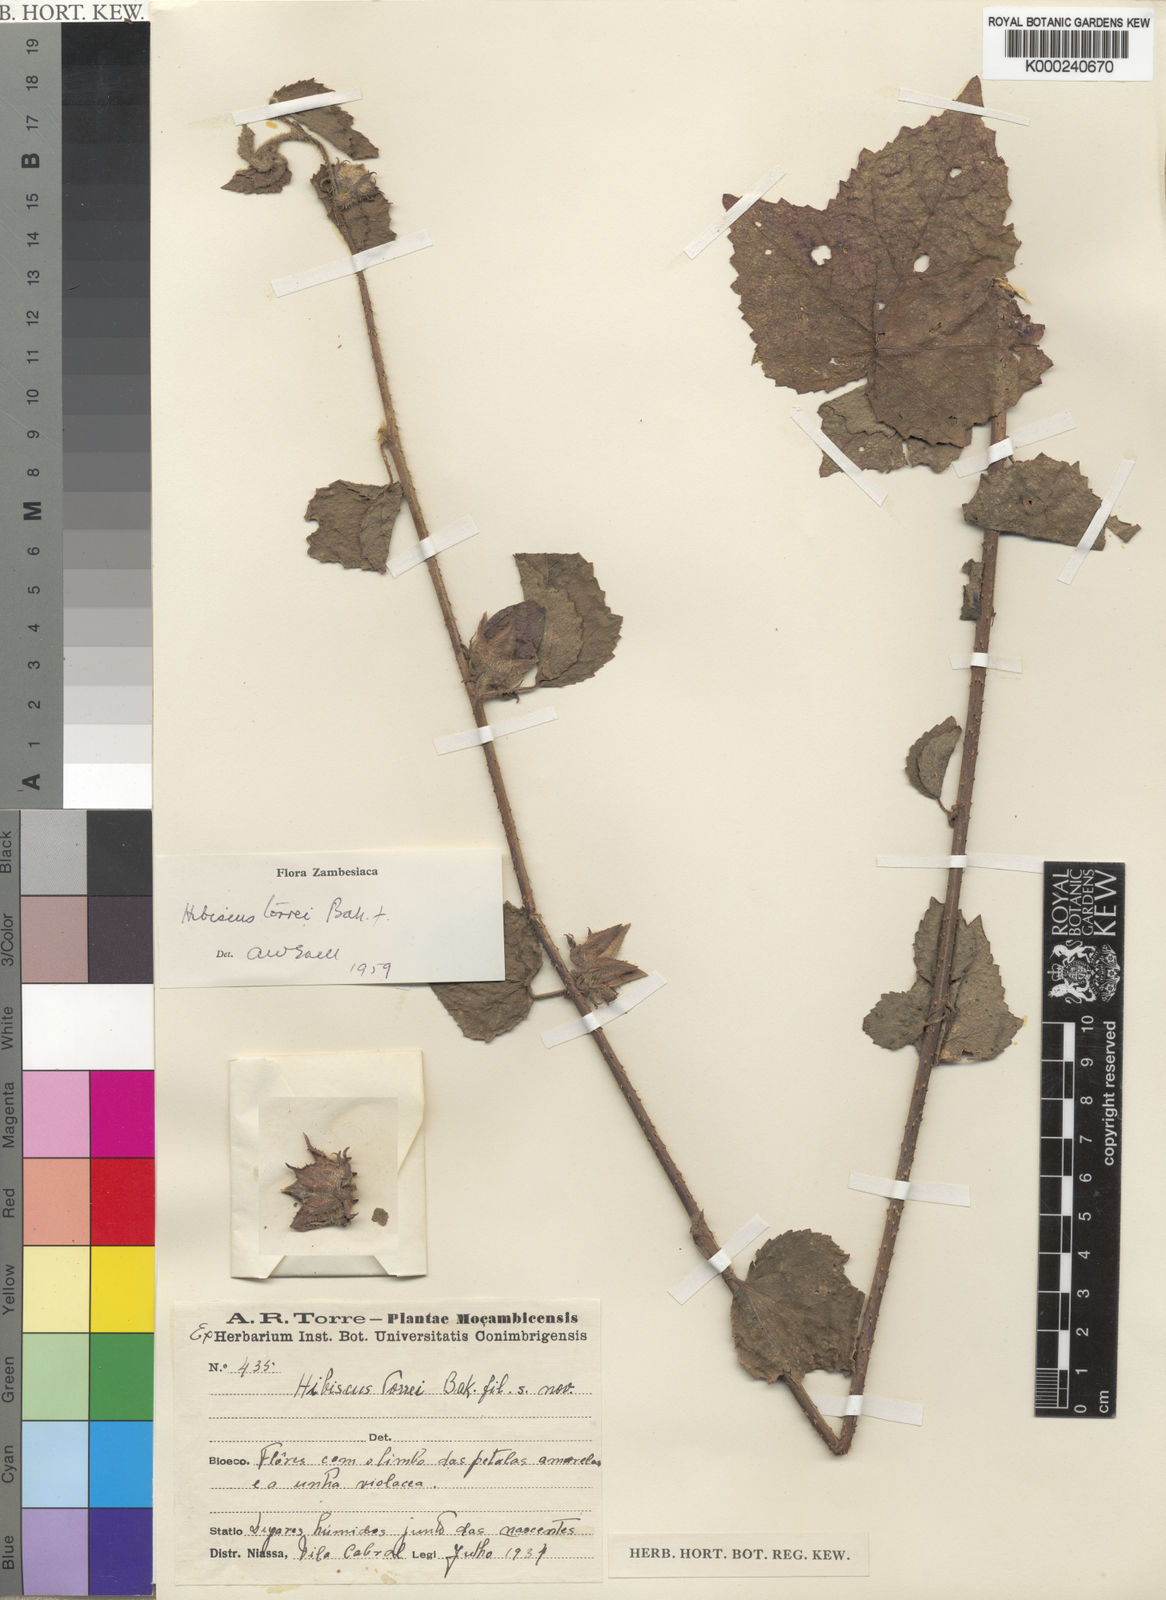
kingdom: Plantae
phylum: Tracheophyta
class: Magnoliopsida
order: Malvales
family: Malvaceae
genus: Hibiscus
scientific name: Hibiscus torrei
